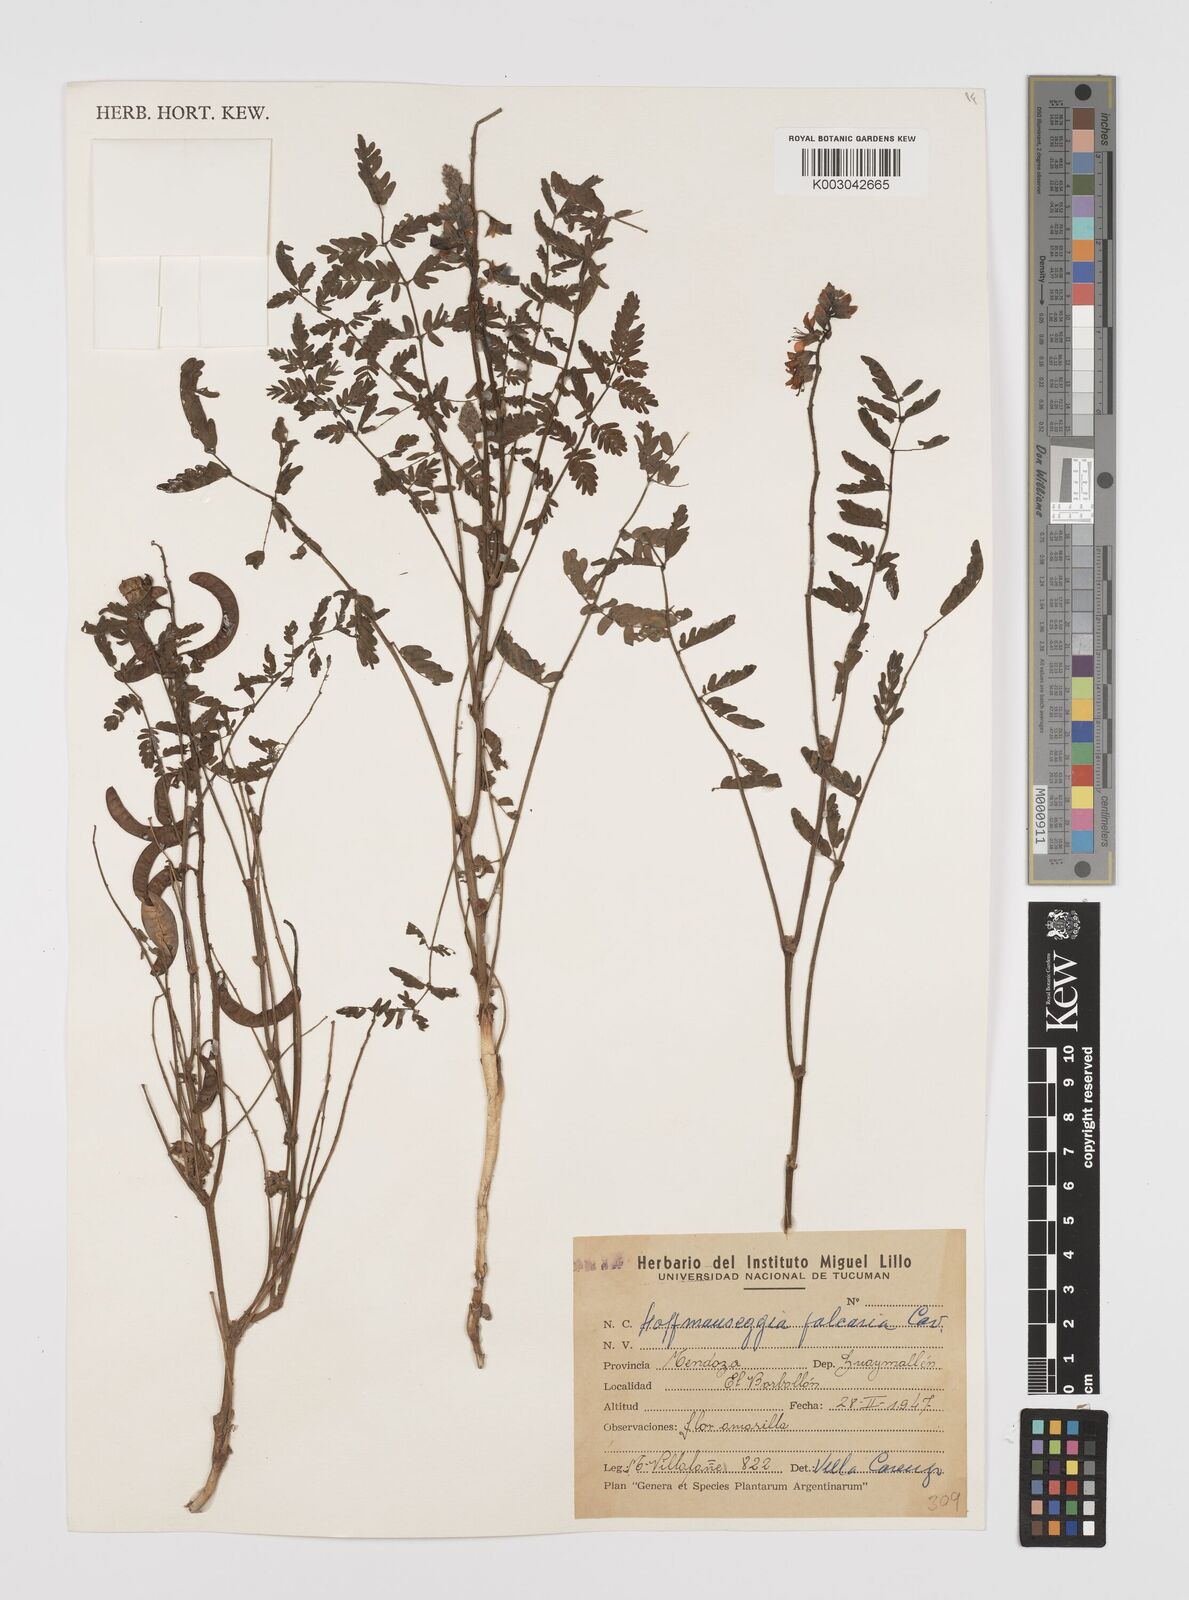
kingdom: Plantae
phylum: Tracheophyta
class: Magnoliopsida
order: Fabales
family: Fabaceae
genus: Hoffmannseggia
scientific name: Hoffmannseggia glauca
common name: Pignut
